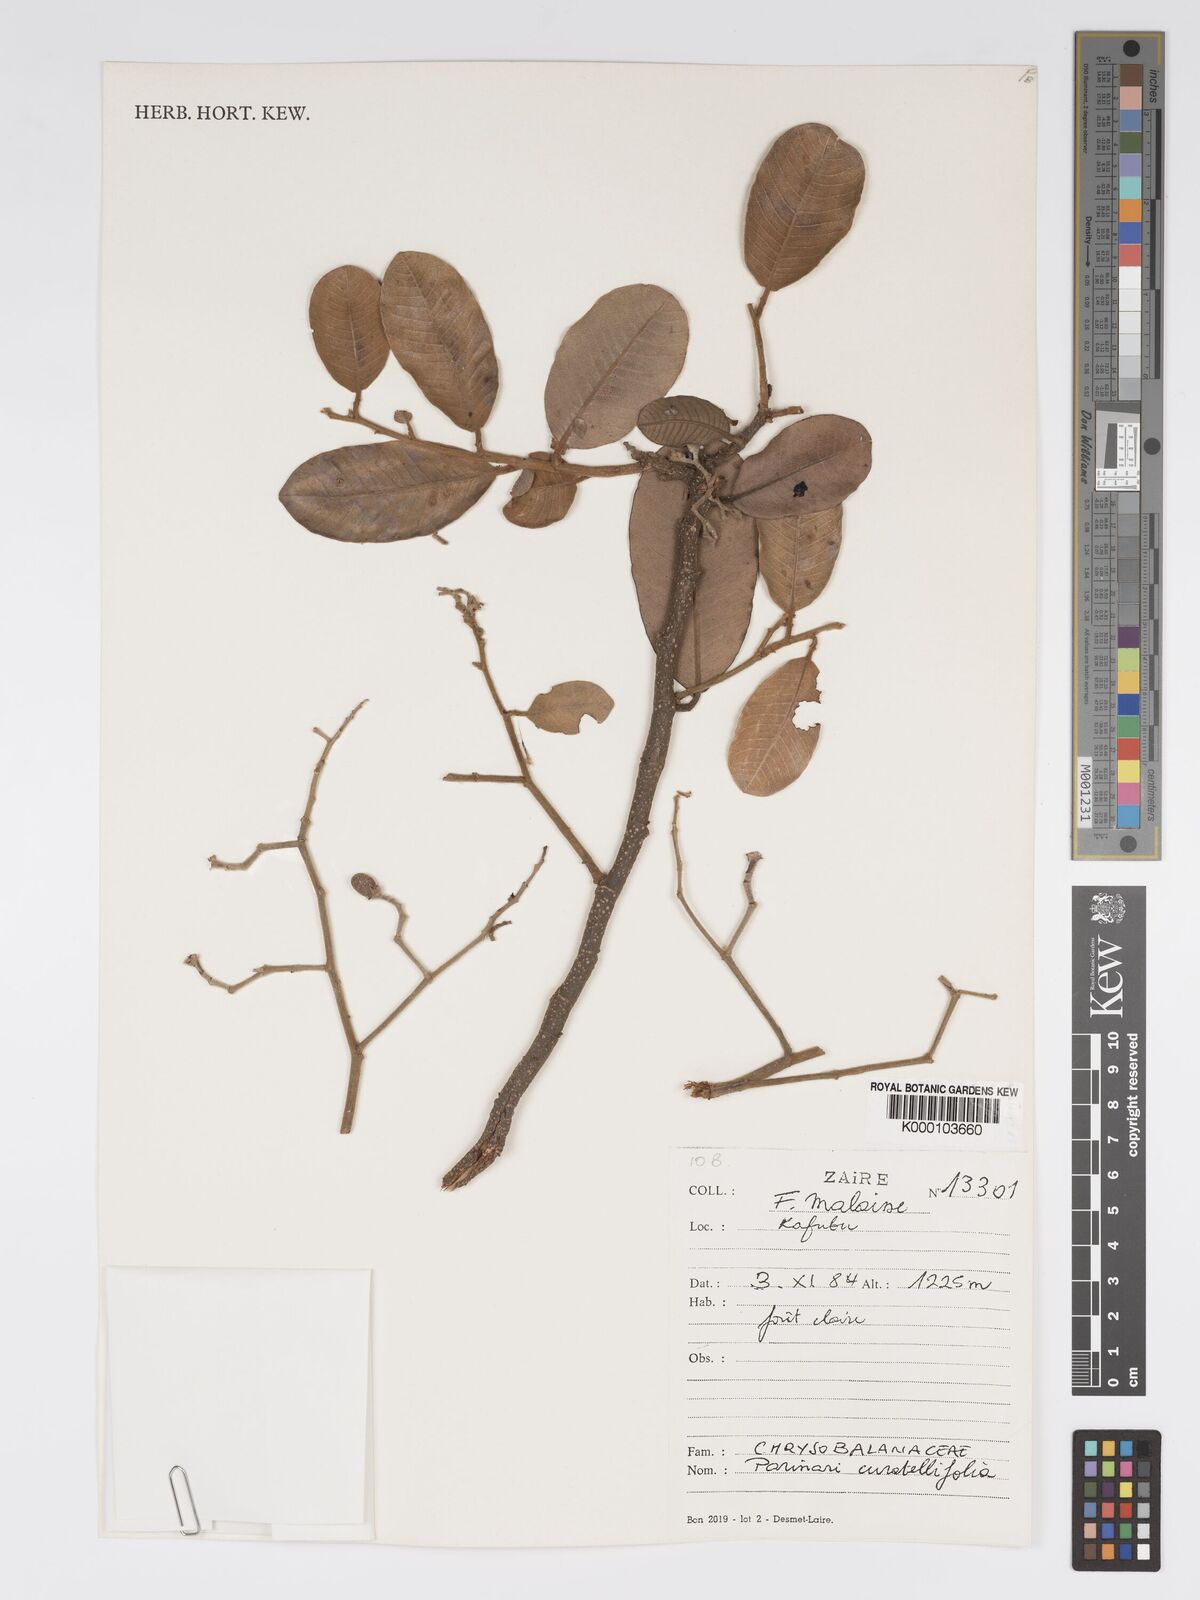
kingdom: Plantae
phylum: Tracheophyta
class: Magnoliopsida
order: Malpighiales
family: Chrysobalanaceae
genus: Parinari
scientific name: Parinari curatellifolia
